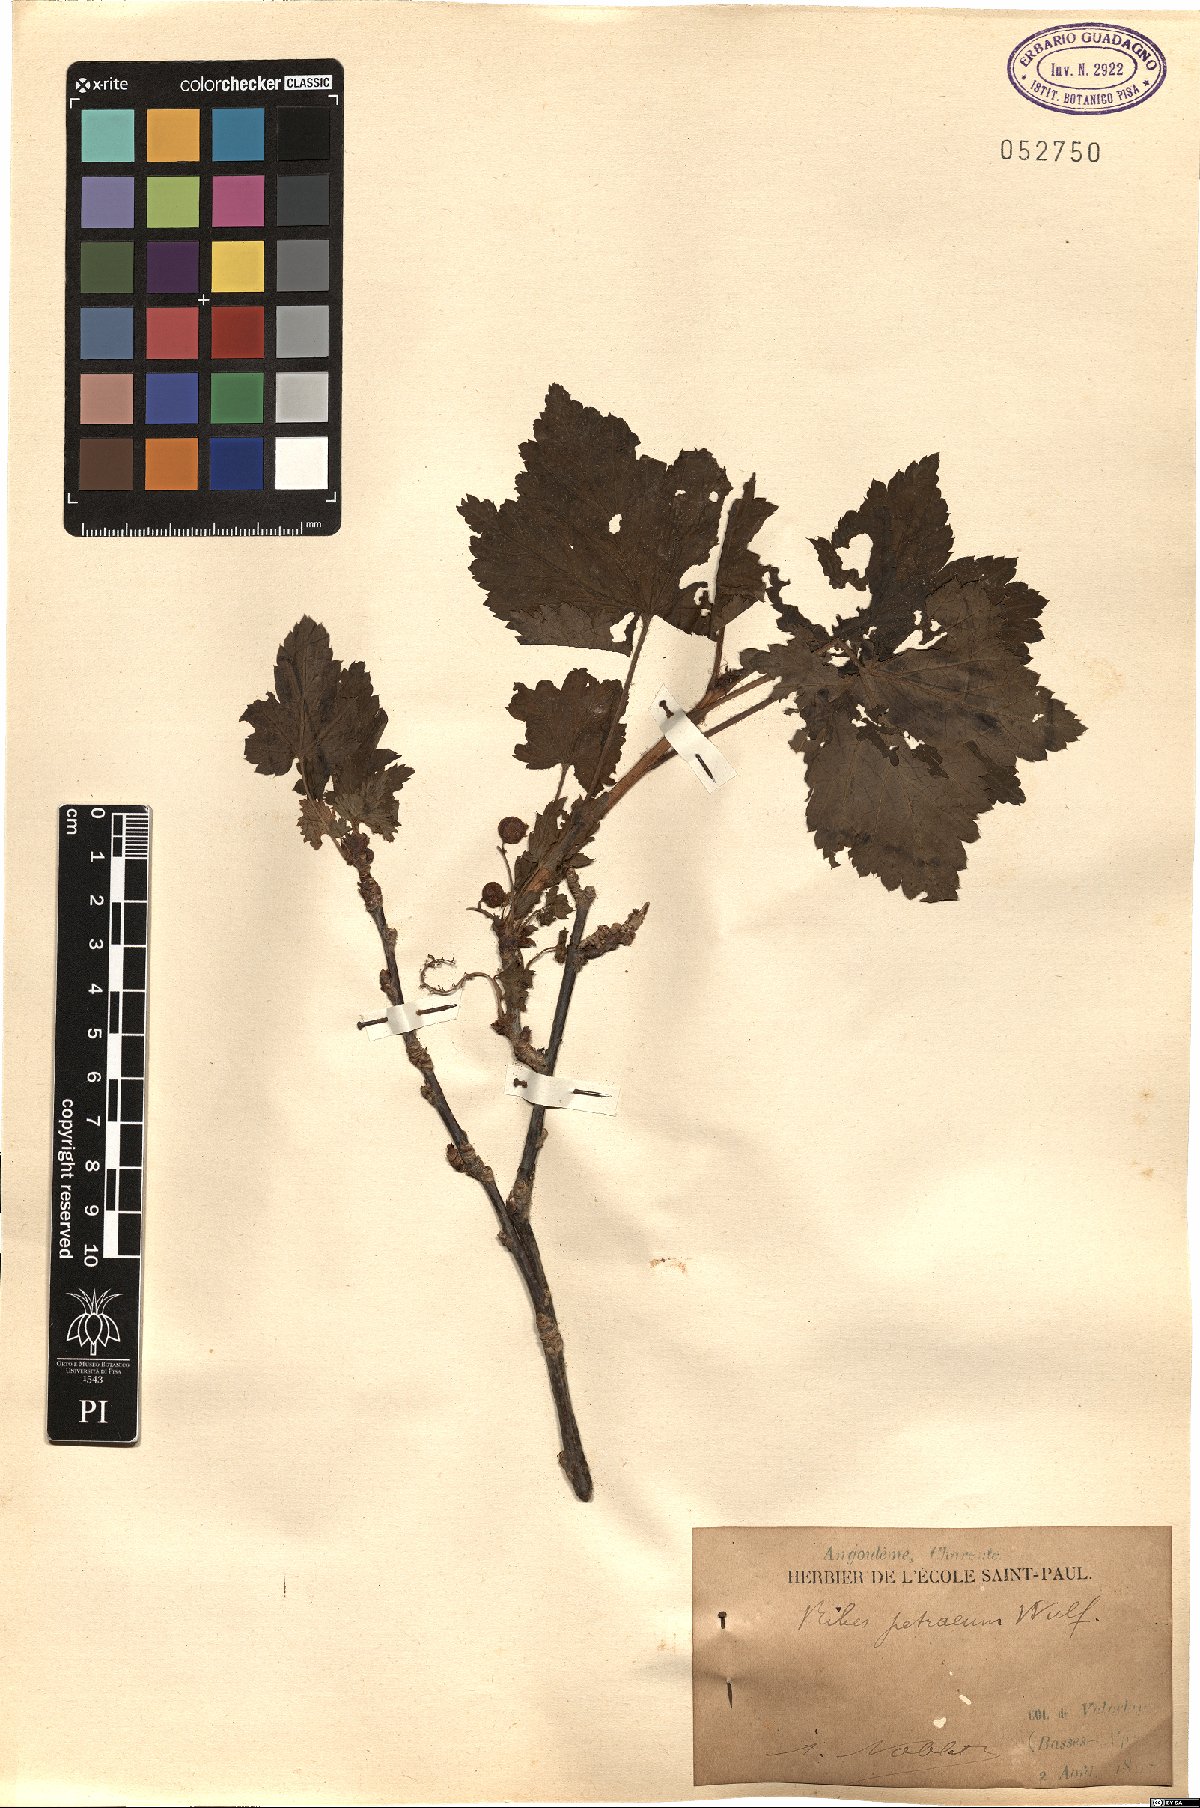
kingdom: Plantae
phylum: Tracheophyta
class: Magnoliopsida
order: Saxifragales
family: Grossulariaceae
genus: Ribes
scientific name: Ribes petraeum
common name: Rock currant
